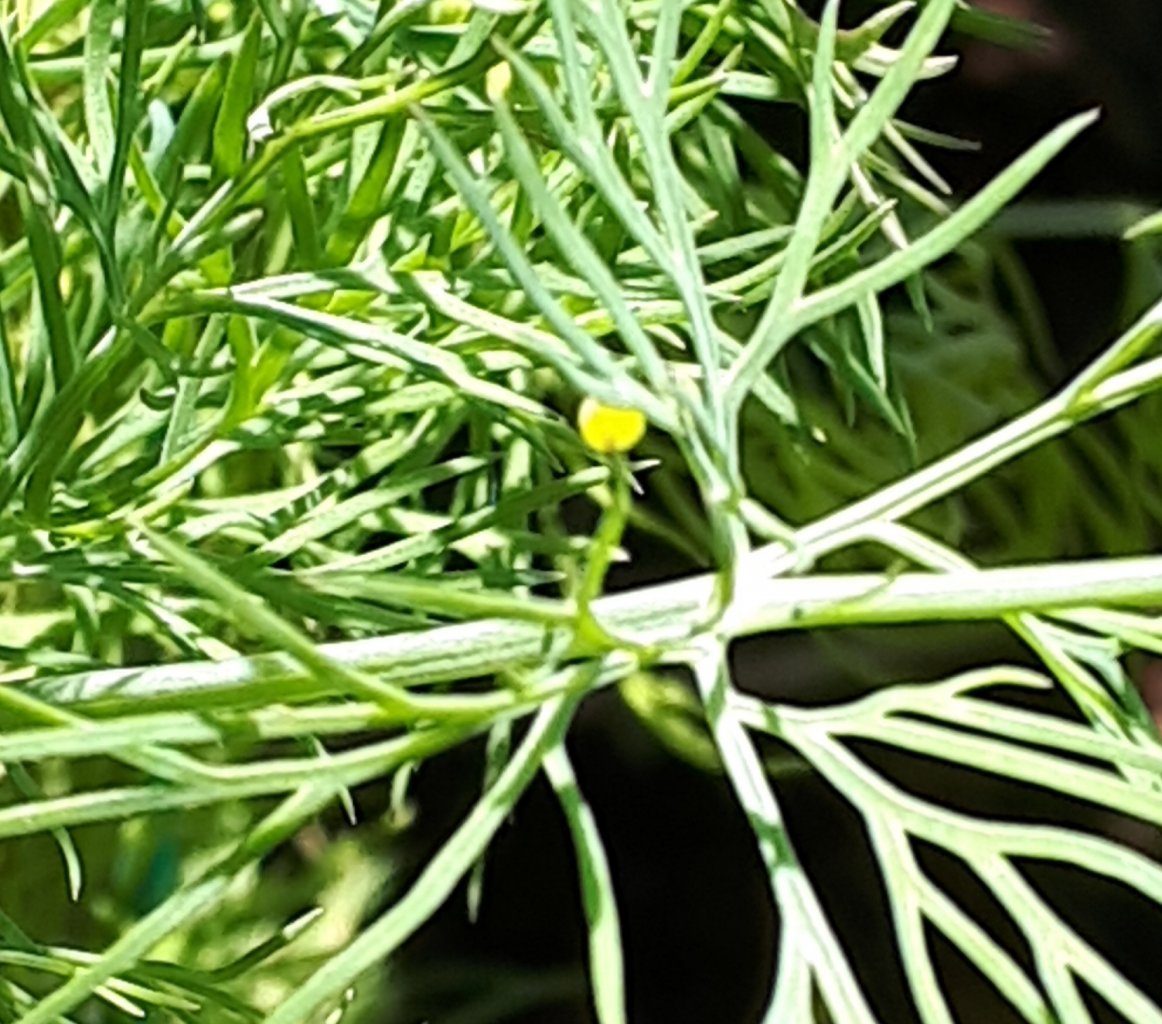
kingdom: Animalia
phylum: Arthropoda
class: Insecta
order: Lepidoptera
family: Papilionidae
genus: Papilio
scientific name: Papilio polyxenes
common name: Black Swallowtail
